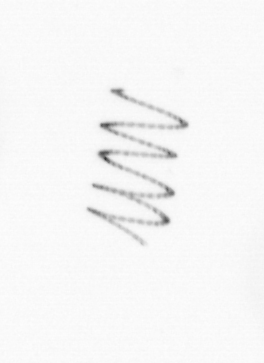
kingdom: Chromista
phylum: Ochrophyta
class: Bacillariophyceae
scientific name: Bacillariophyceae
